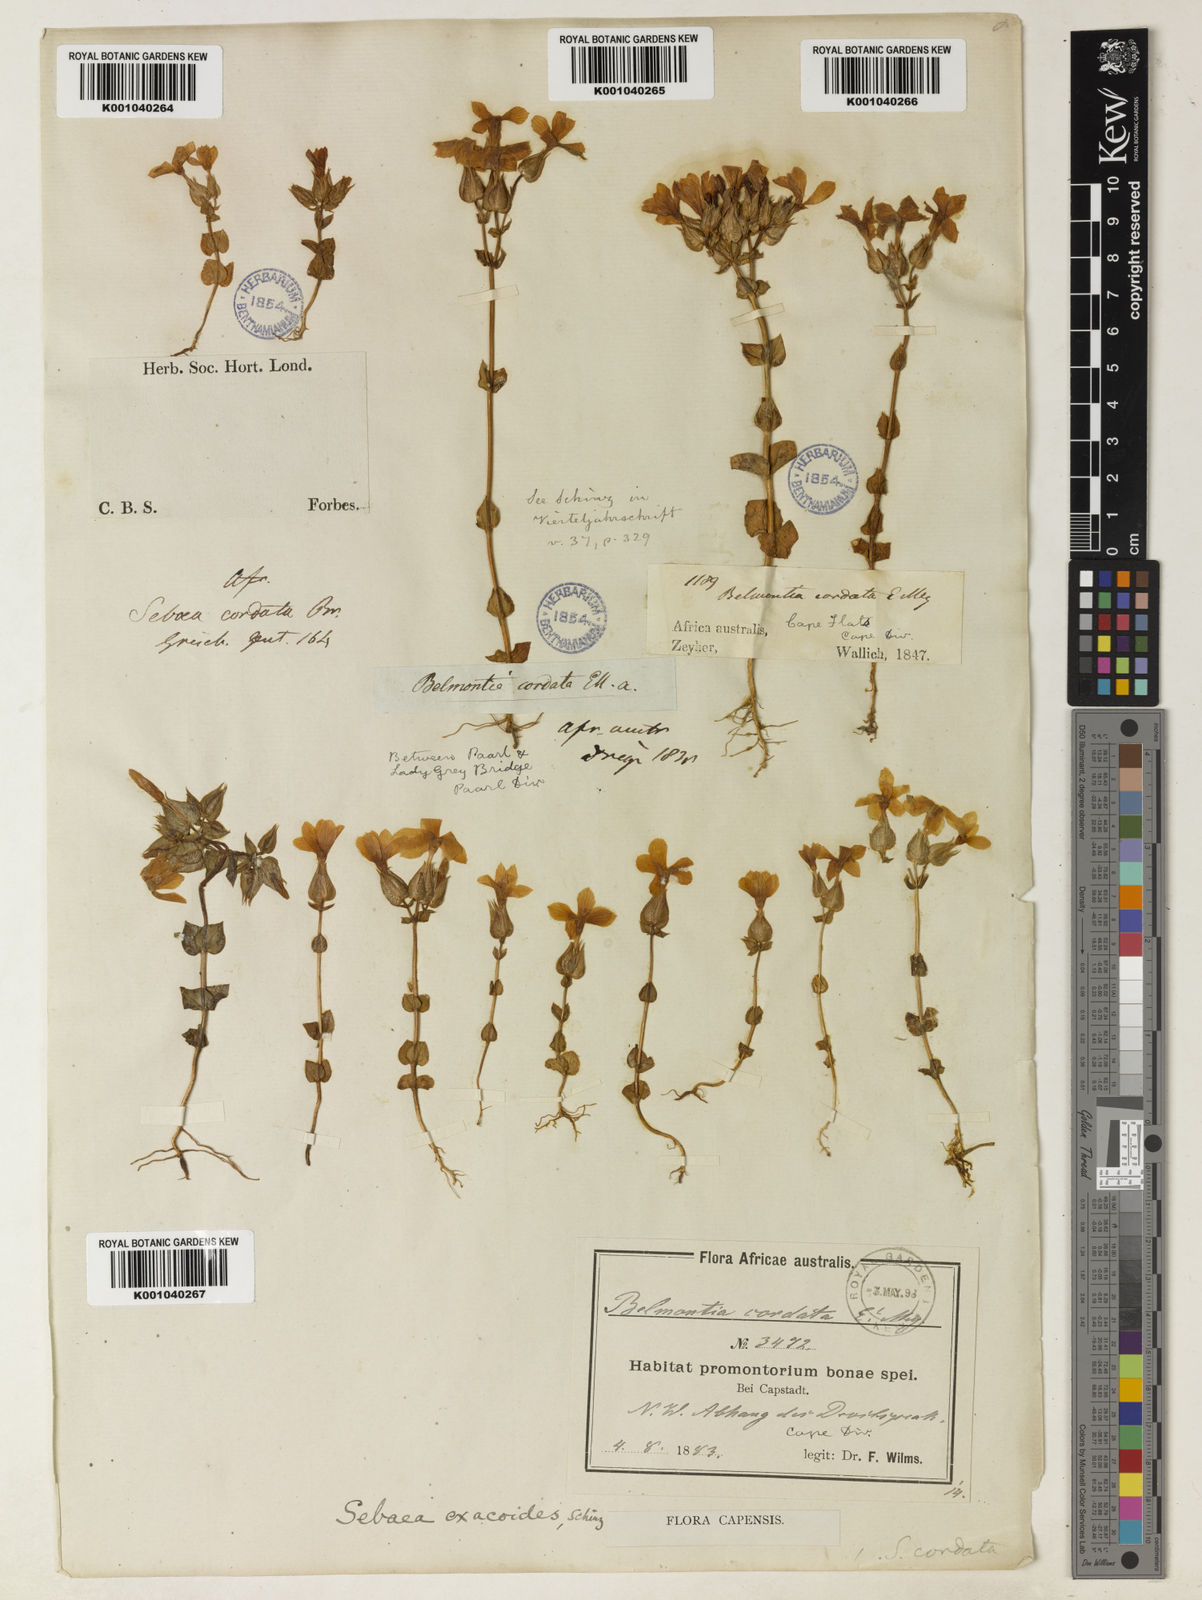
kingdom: Plantae
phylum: Tracheophyta
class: Magnoliopsida
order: Gentianales
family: Gentianaceae
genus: Sebaea
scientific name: Sebaea exacoides
